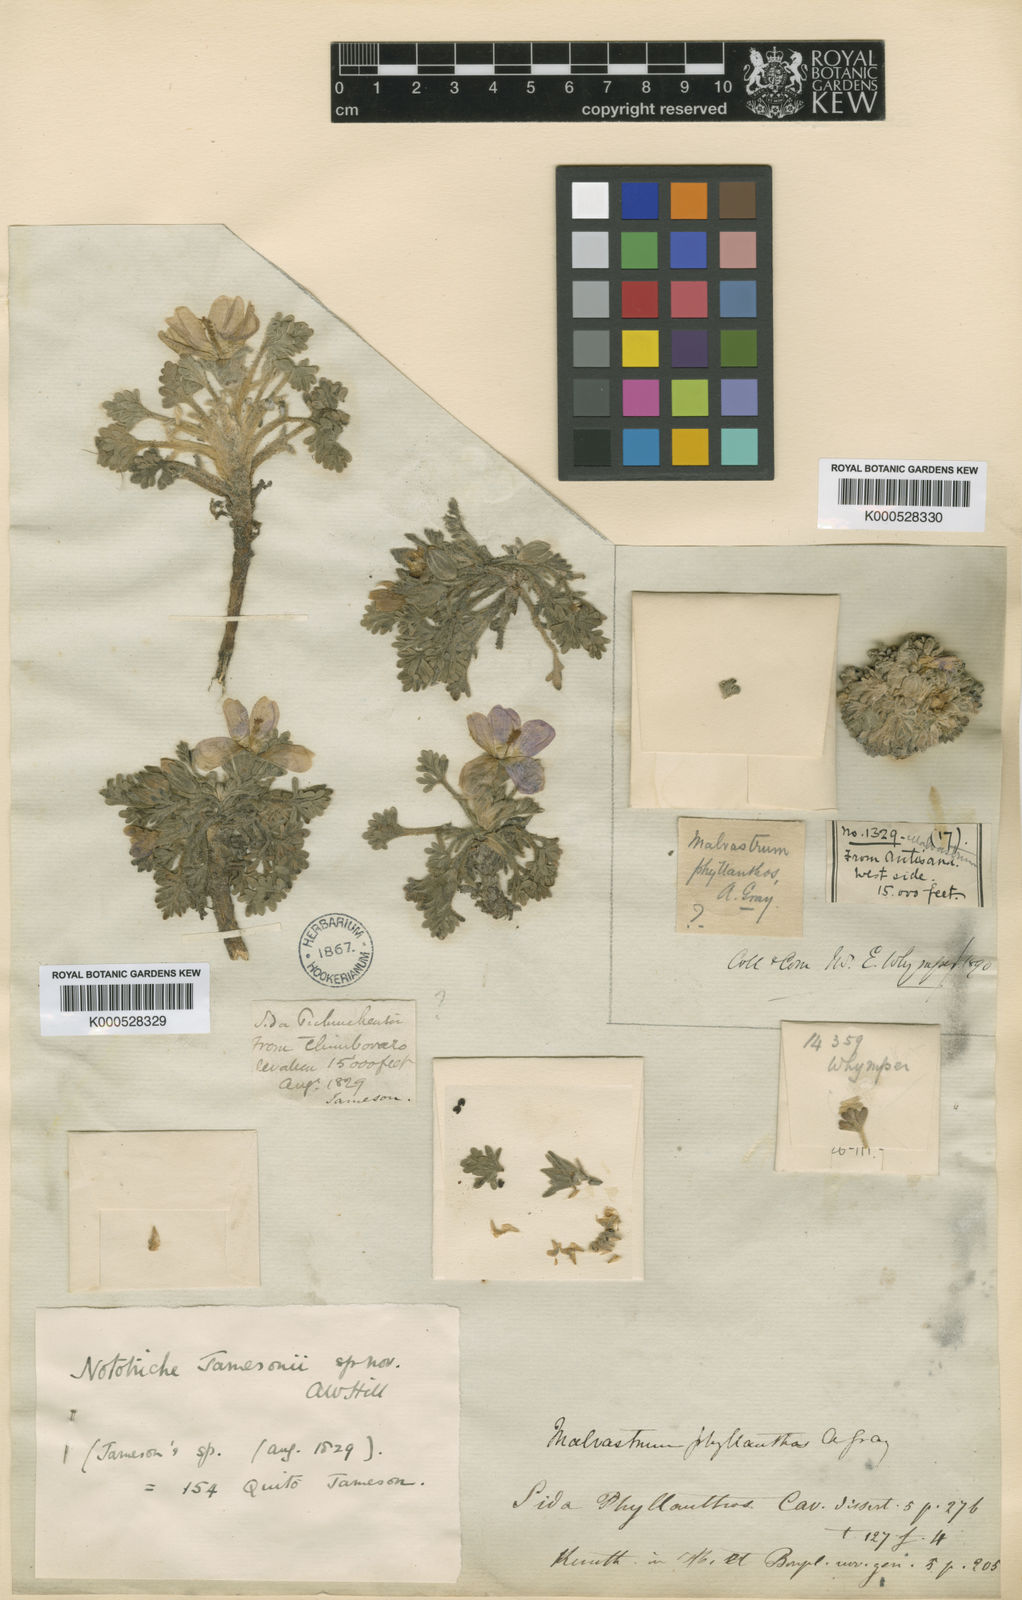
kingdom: Plantae
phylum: Tracheophyta
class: Magnoliopsida
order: Malvales
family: Malvaceae
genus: Nototriche
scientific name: Nototriche jamesonii
